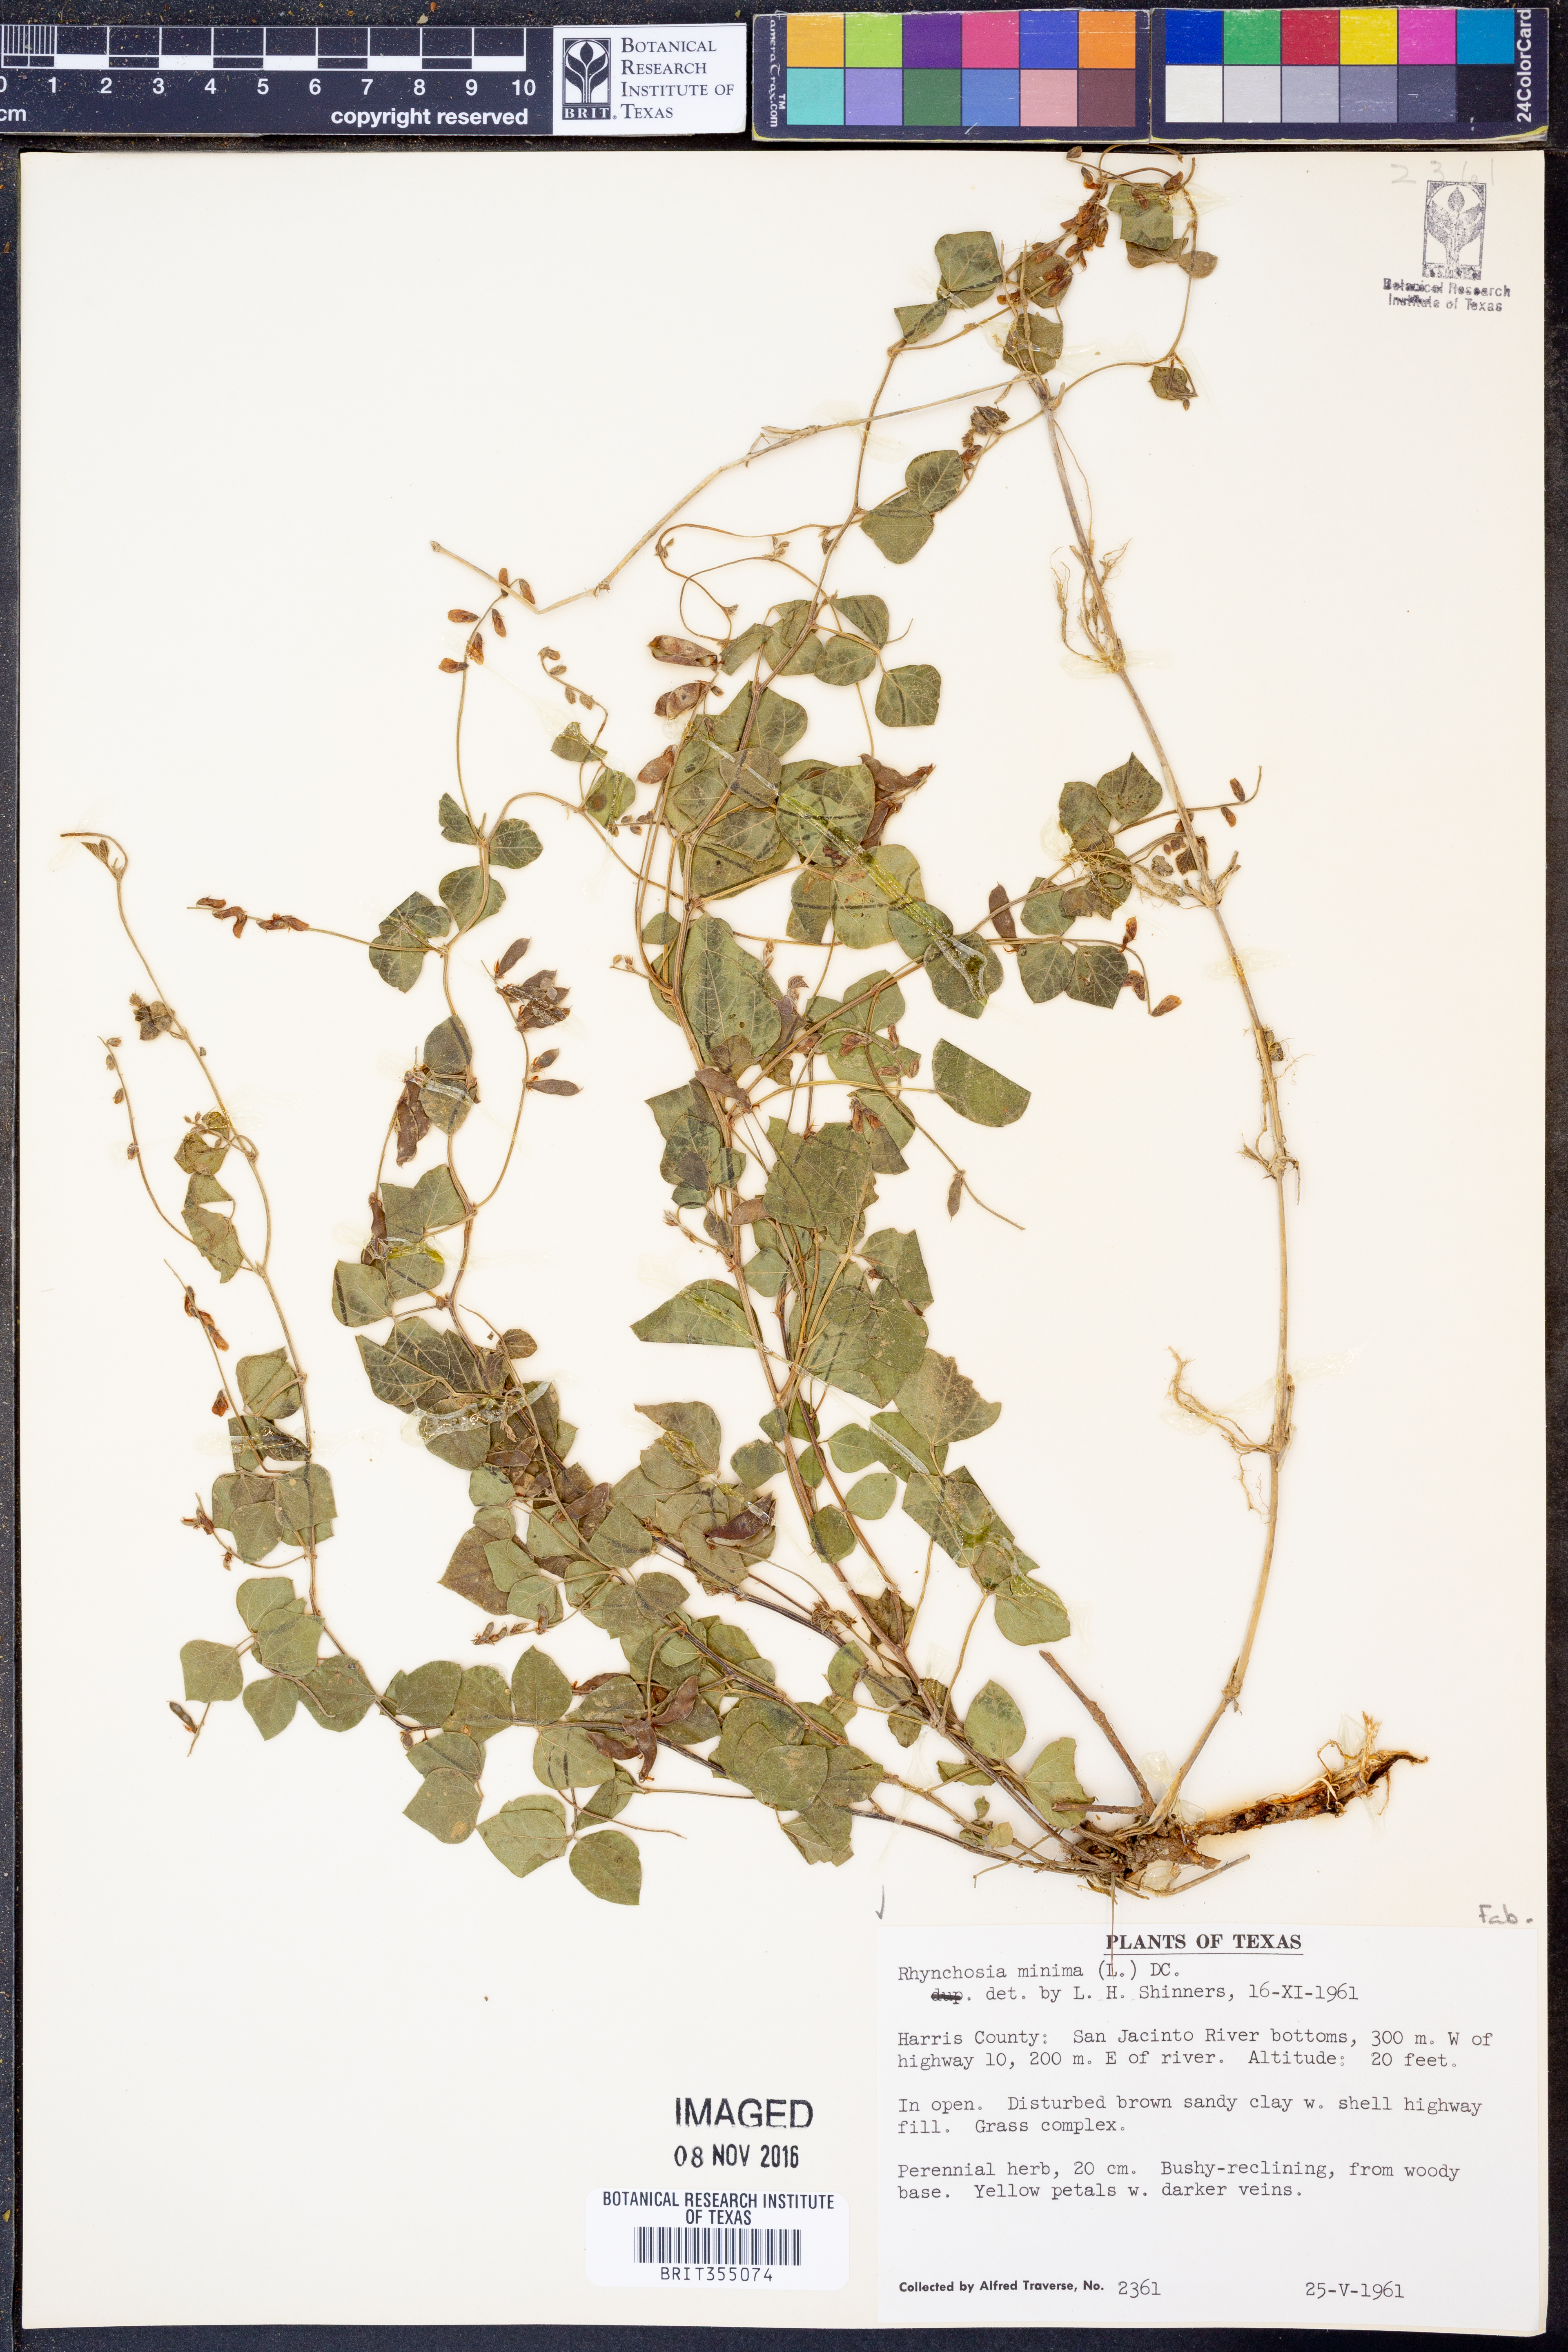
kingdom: Plantae
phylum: Tracheophyta
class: Magnoliopsida
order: Fabales
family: Fabaceae
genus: Rhynchosia
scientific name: Rhynchosia minima
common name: Least snoutbean
